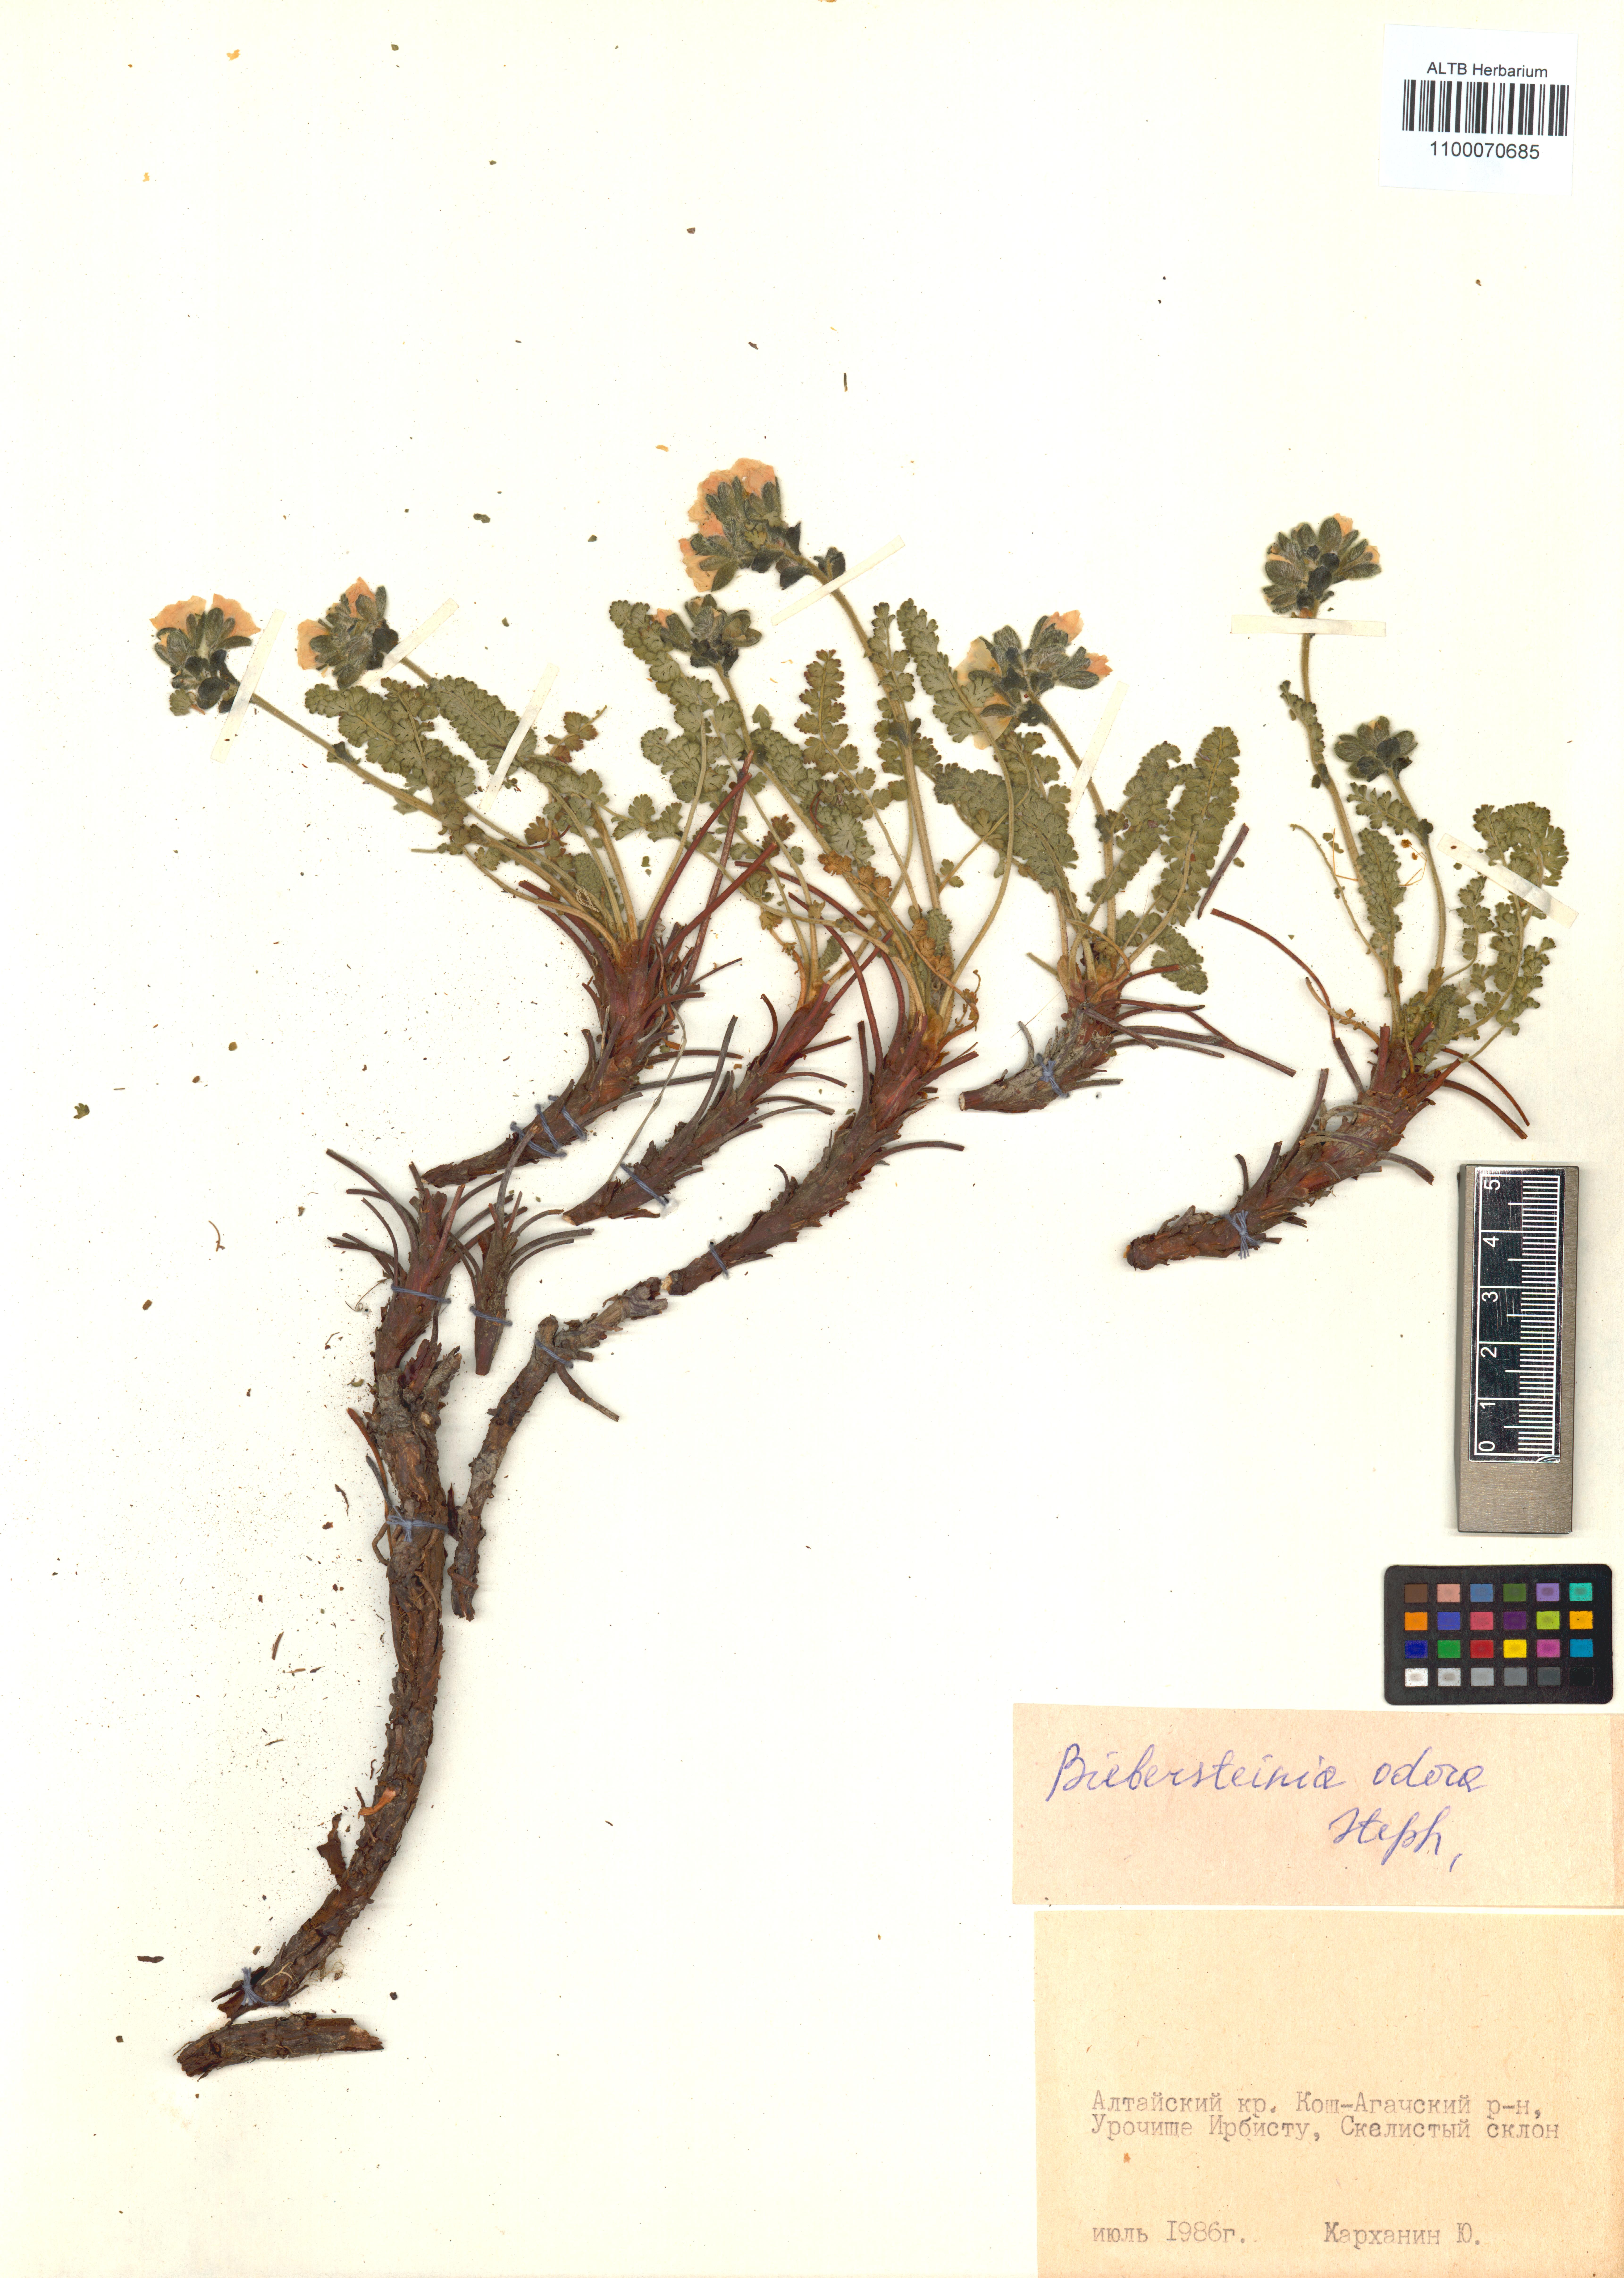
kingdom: Plantae
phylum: Tracheophyta
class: Magnoliopsida
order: Sapindales
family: Biebersteiniaceae
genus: Biebersteinia
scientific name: Biebersteinia odora
